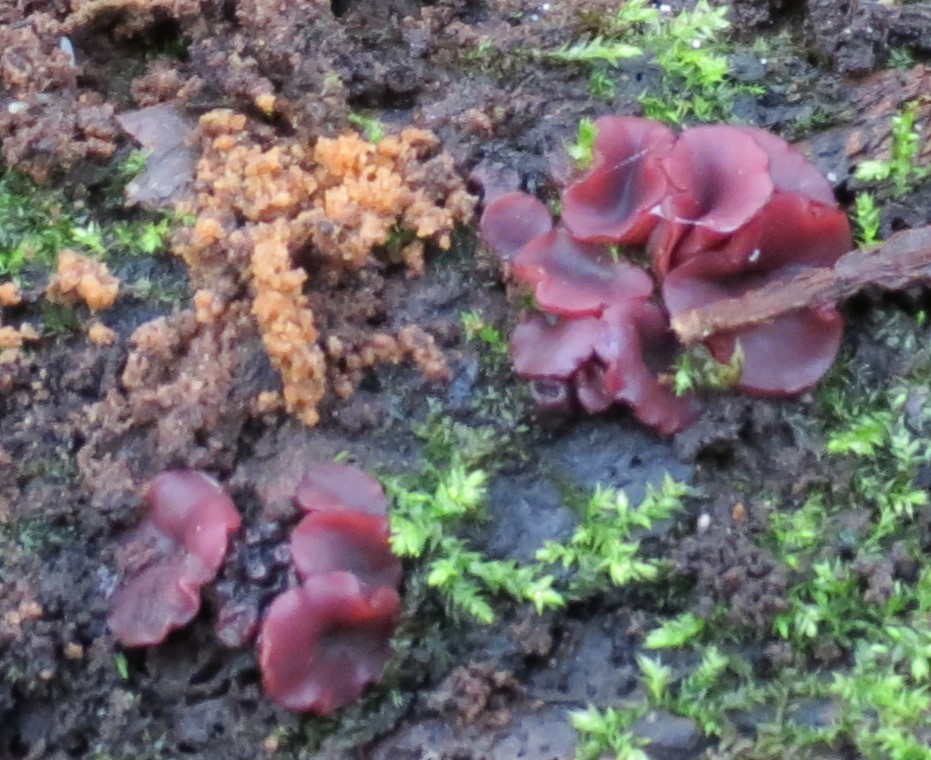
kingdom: Fungi
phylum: Ascomycota
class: Leotiomycetes
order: Helotiales
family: Gelatinodiscaceae
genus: Ascocoryne
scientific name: Ascocoryne sarcoides
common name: rødlilla sejskive
